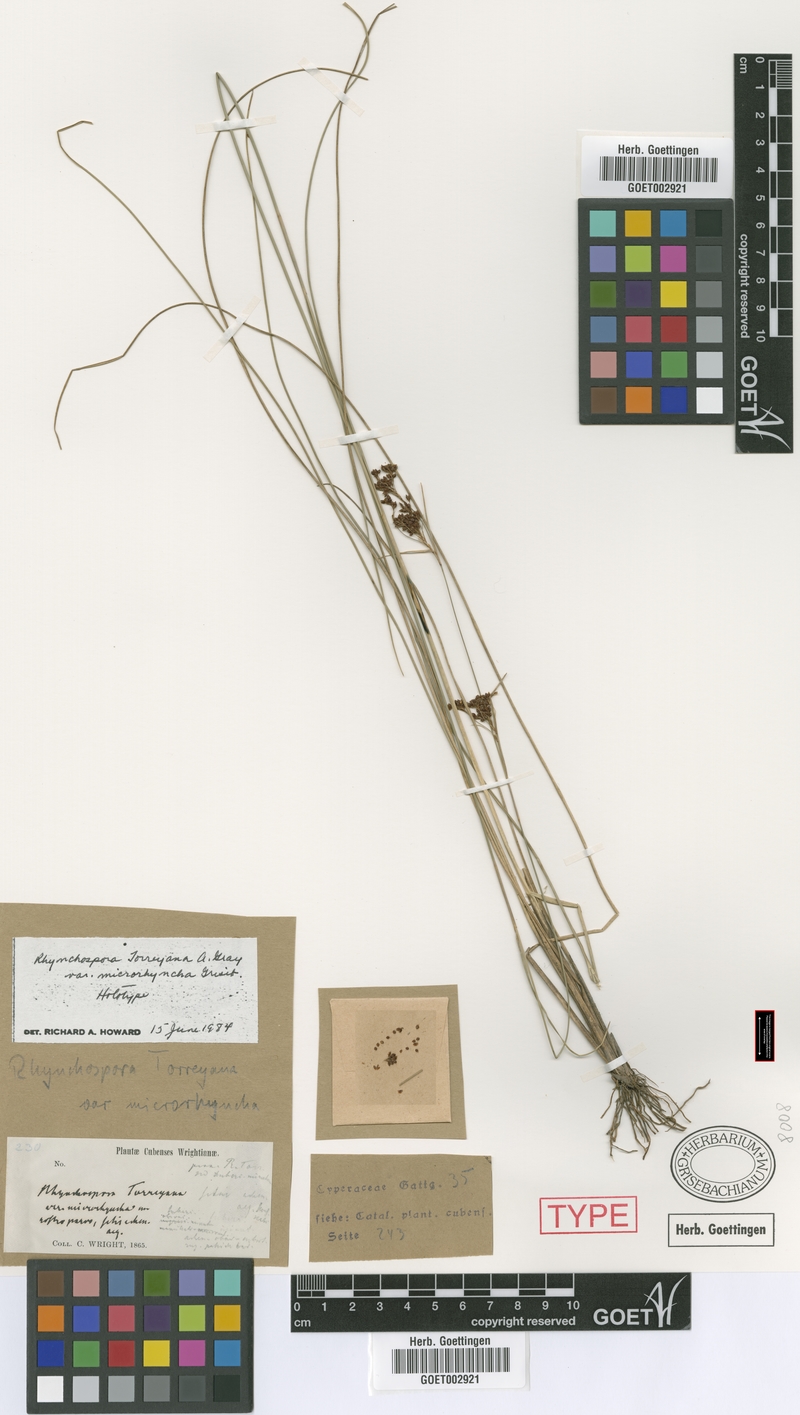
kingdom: Plantae
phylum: Tracheophyta
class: Liliopsida
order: Poales
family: Cyperaceae
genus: Rhynchospora
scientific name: Rhynchospora microcarpa
